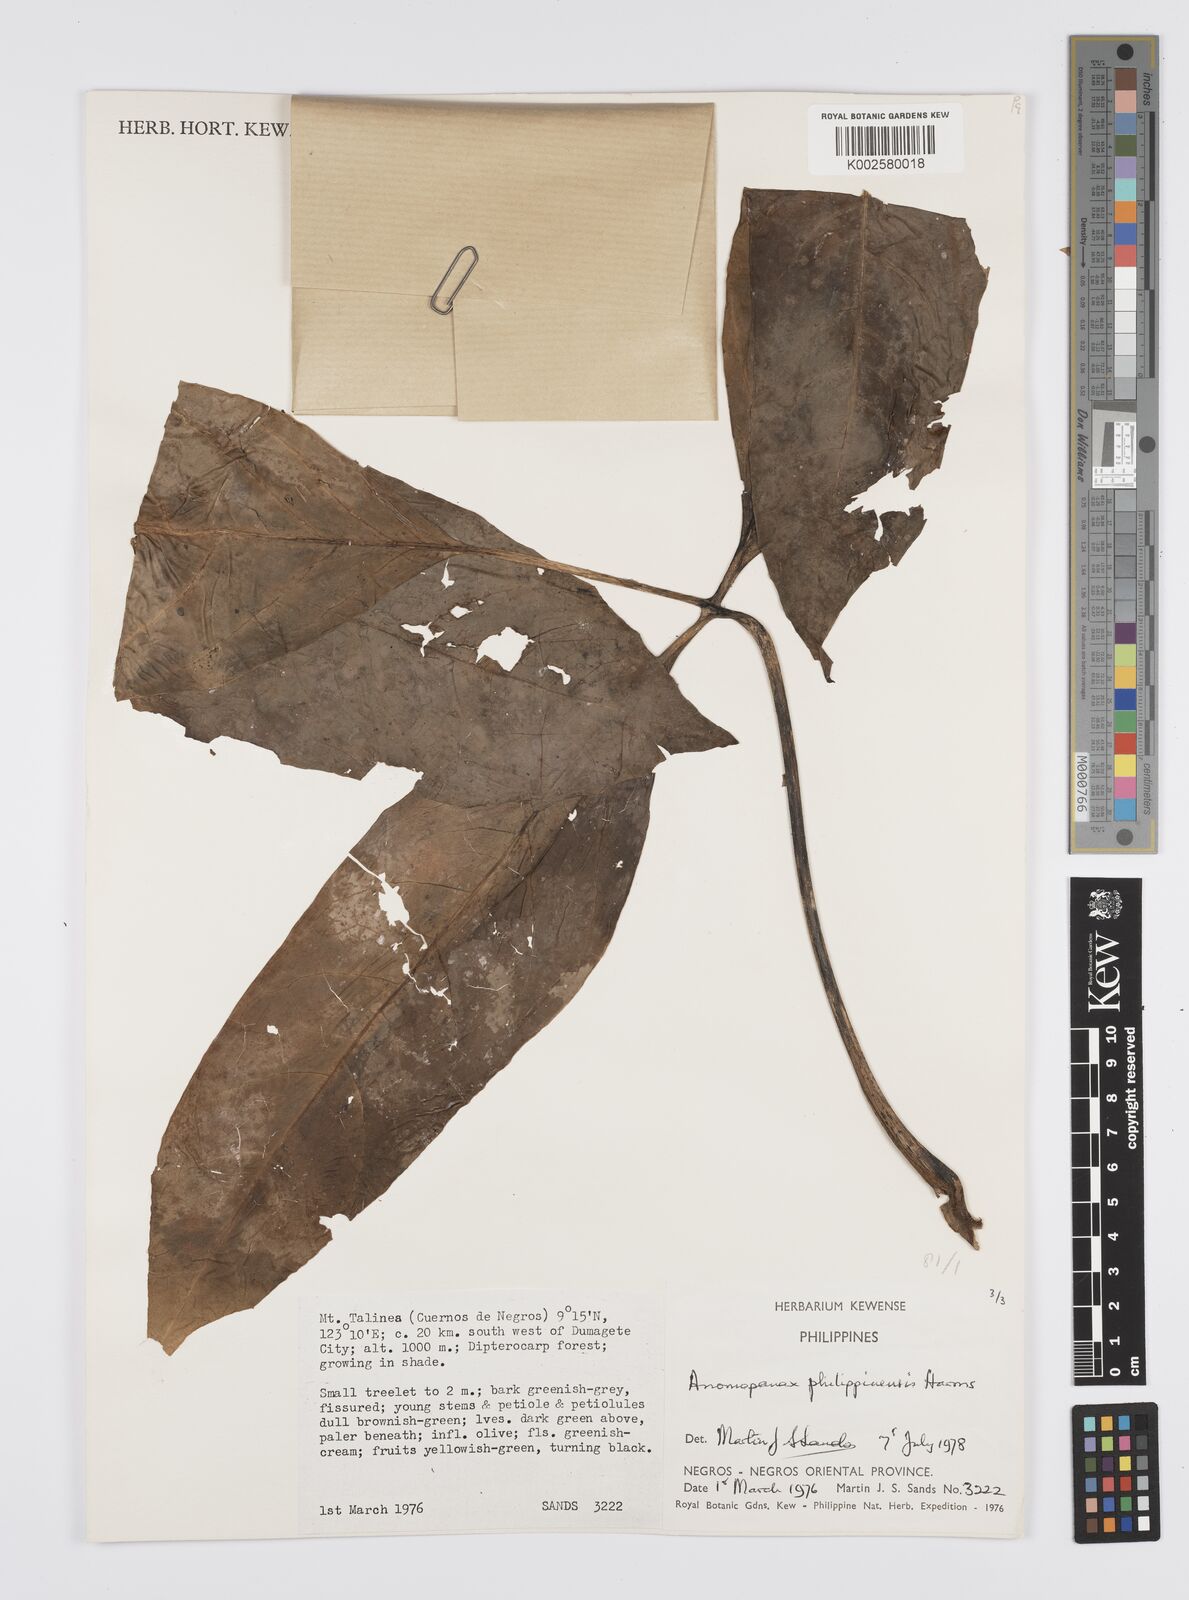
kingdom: Plantae
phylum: Tracheophyta
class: Magnoliopsida
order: Apiales
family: Apiaceae
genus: Mackinlaya
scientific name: Mackinlaya
